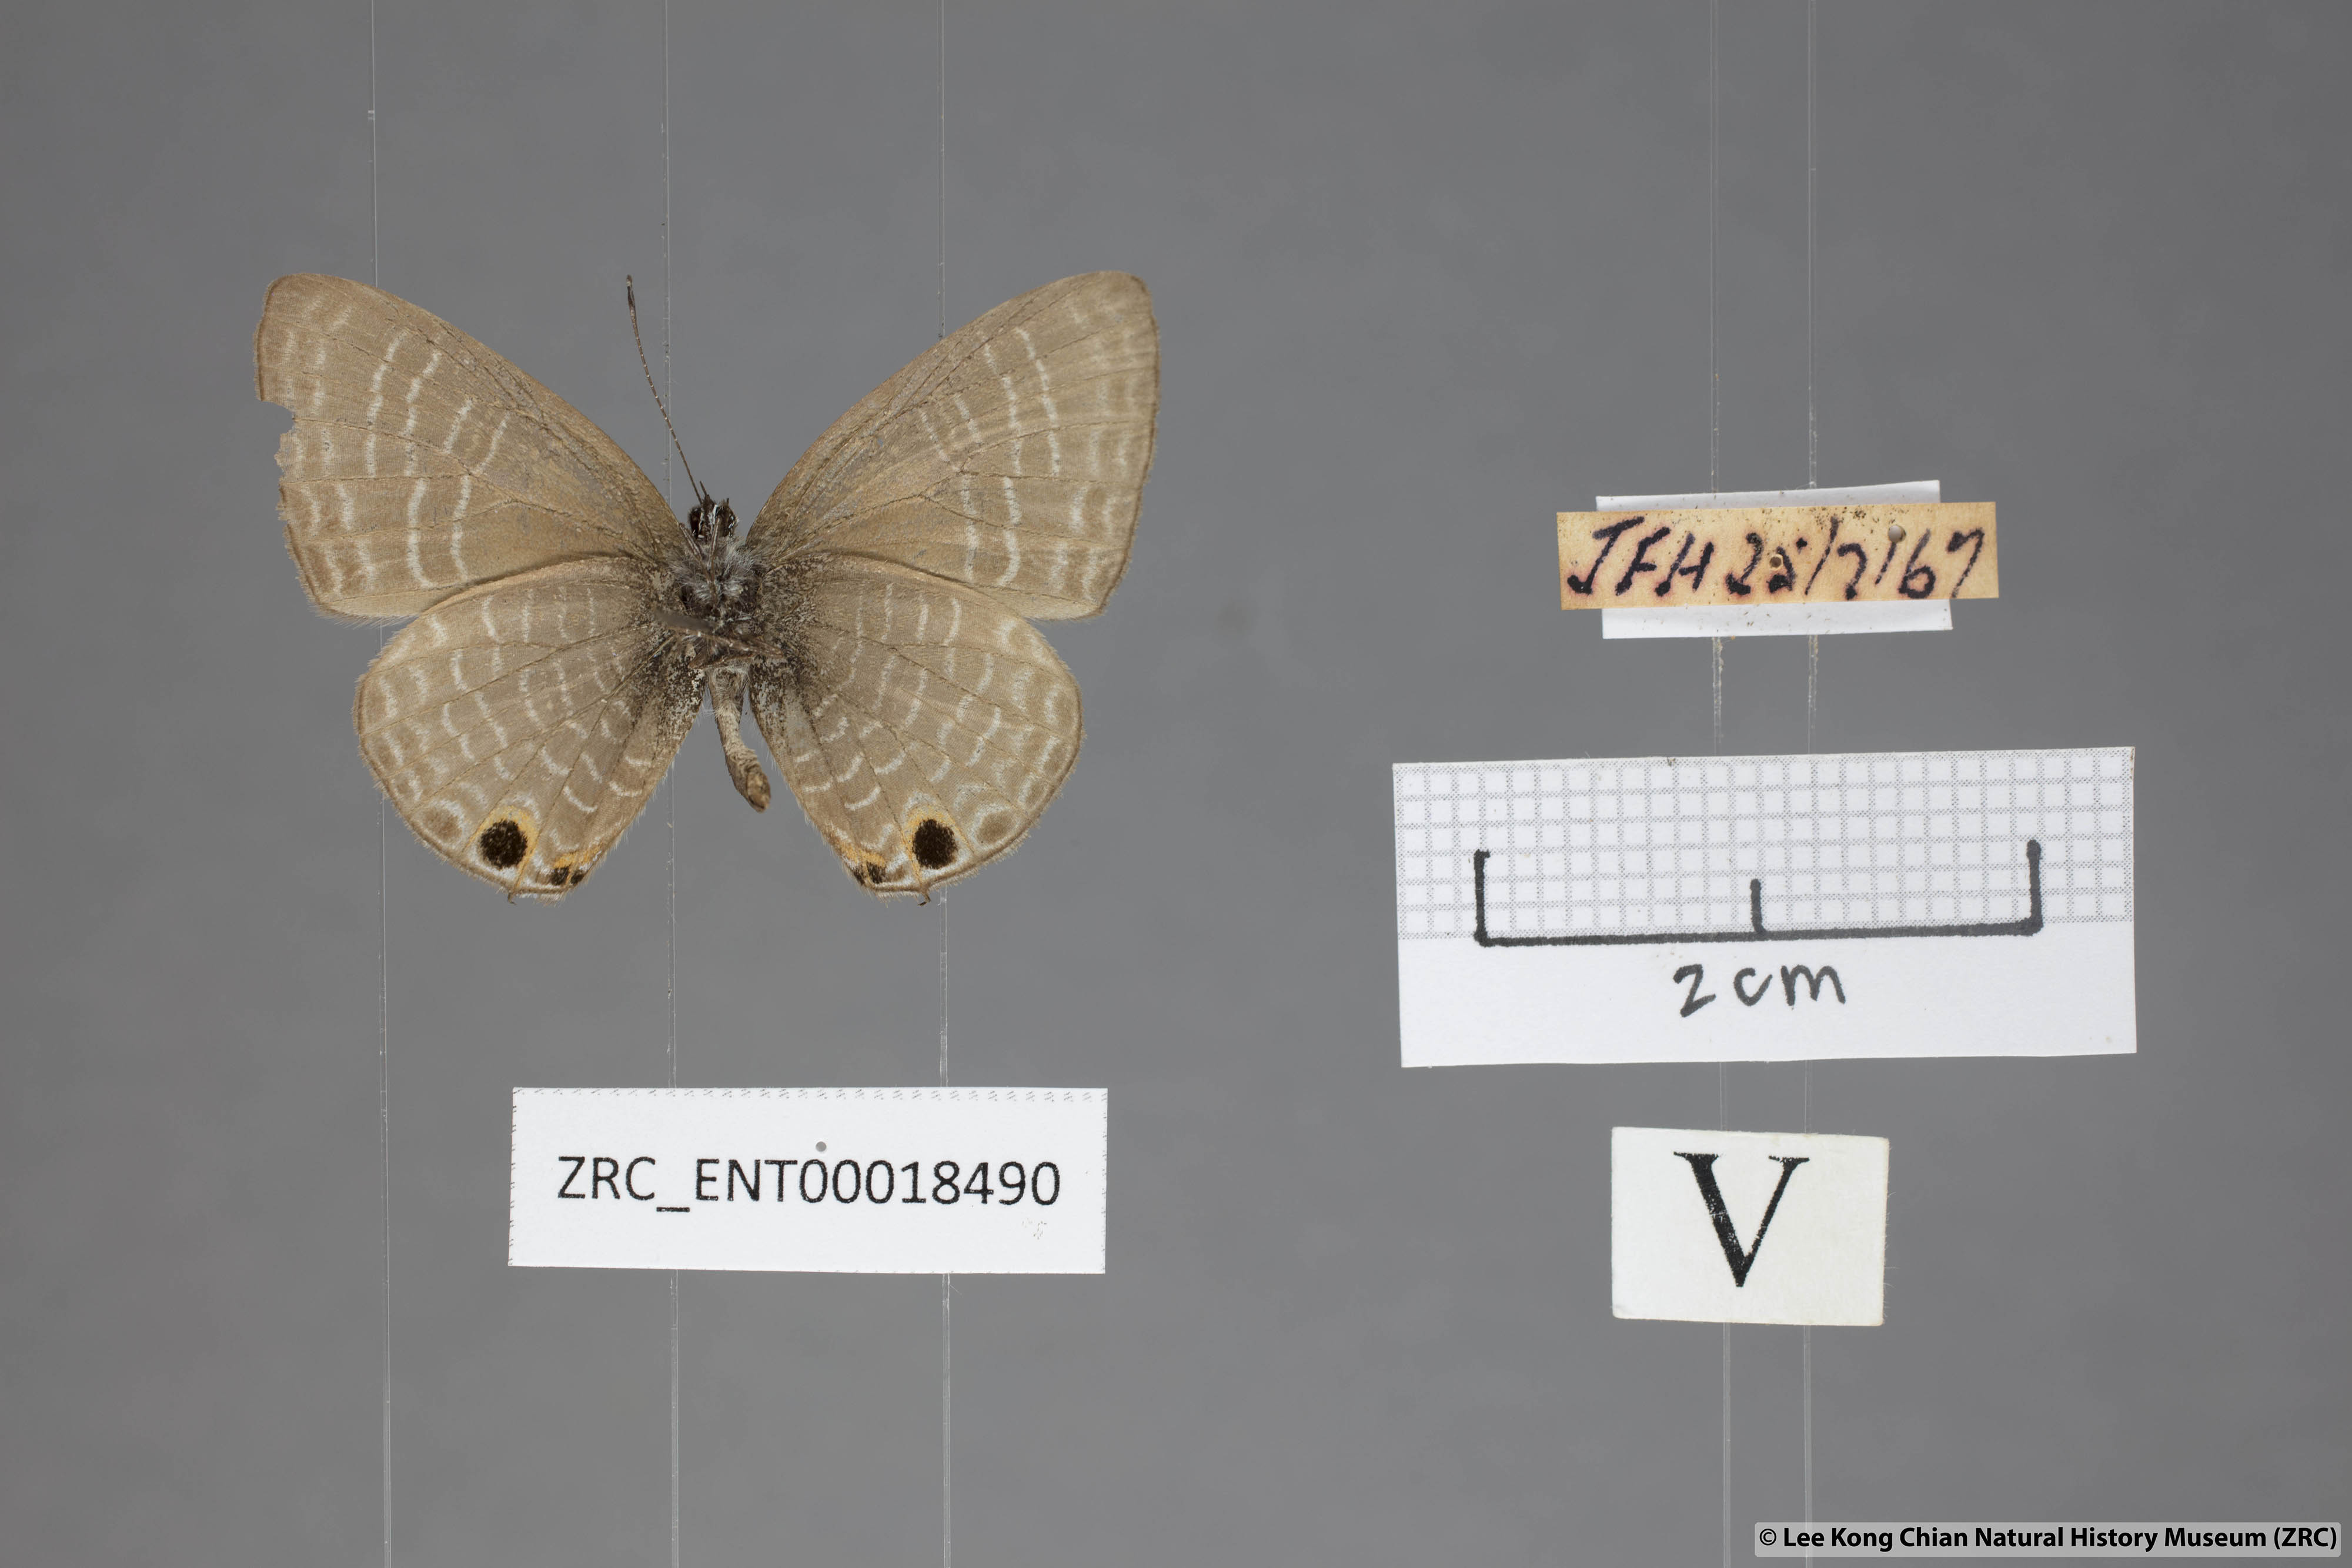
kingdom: Animalia
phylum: Arthropoda
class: Insecta
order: Lepidoptera
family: Lycaenidae
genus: Nacaduba
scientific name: Nacaduba subperusia
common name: Violet fourline blue
